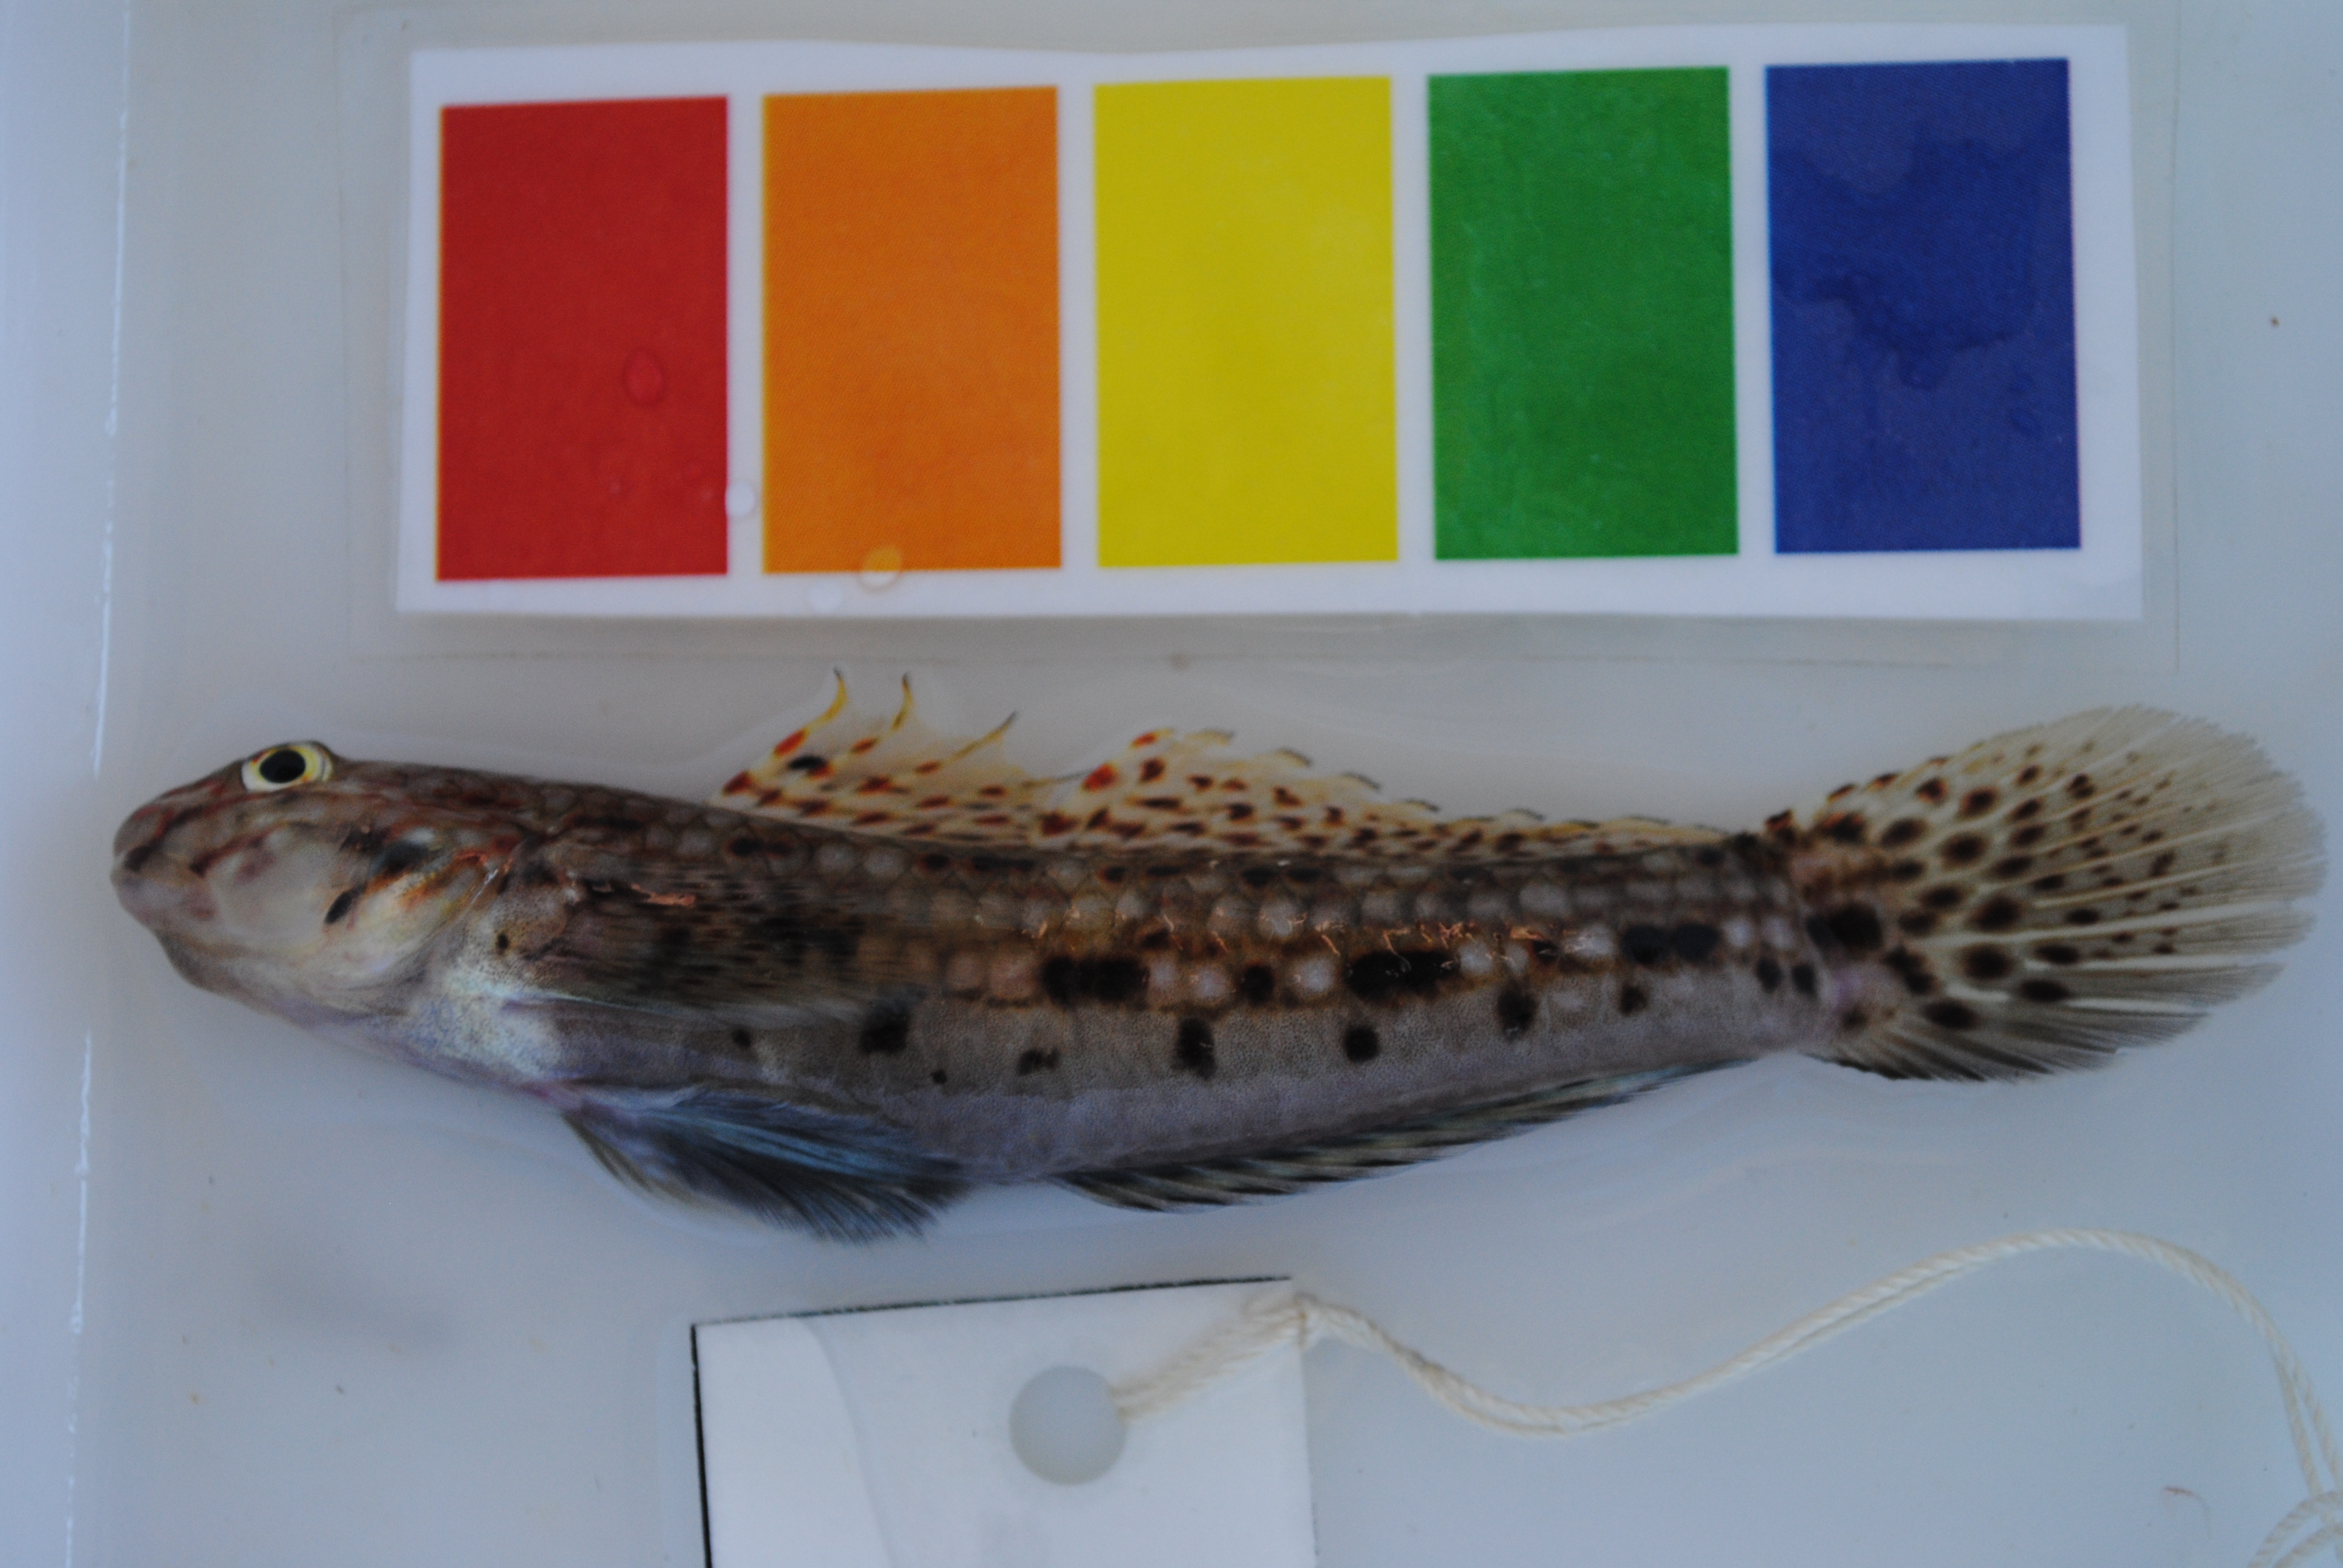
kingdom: Animalia
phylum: Chordata
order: Perciformes
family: Gobiidae
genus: Istigobius
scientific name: Istigobius decoratus
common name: Decorated goby
